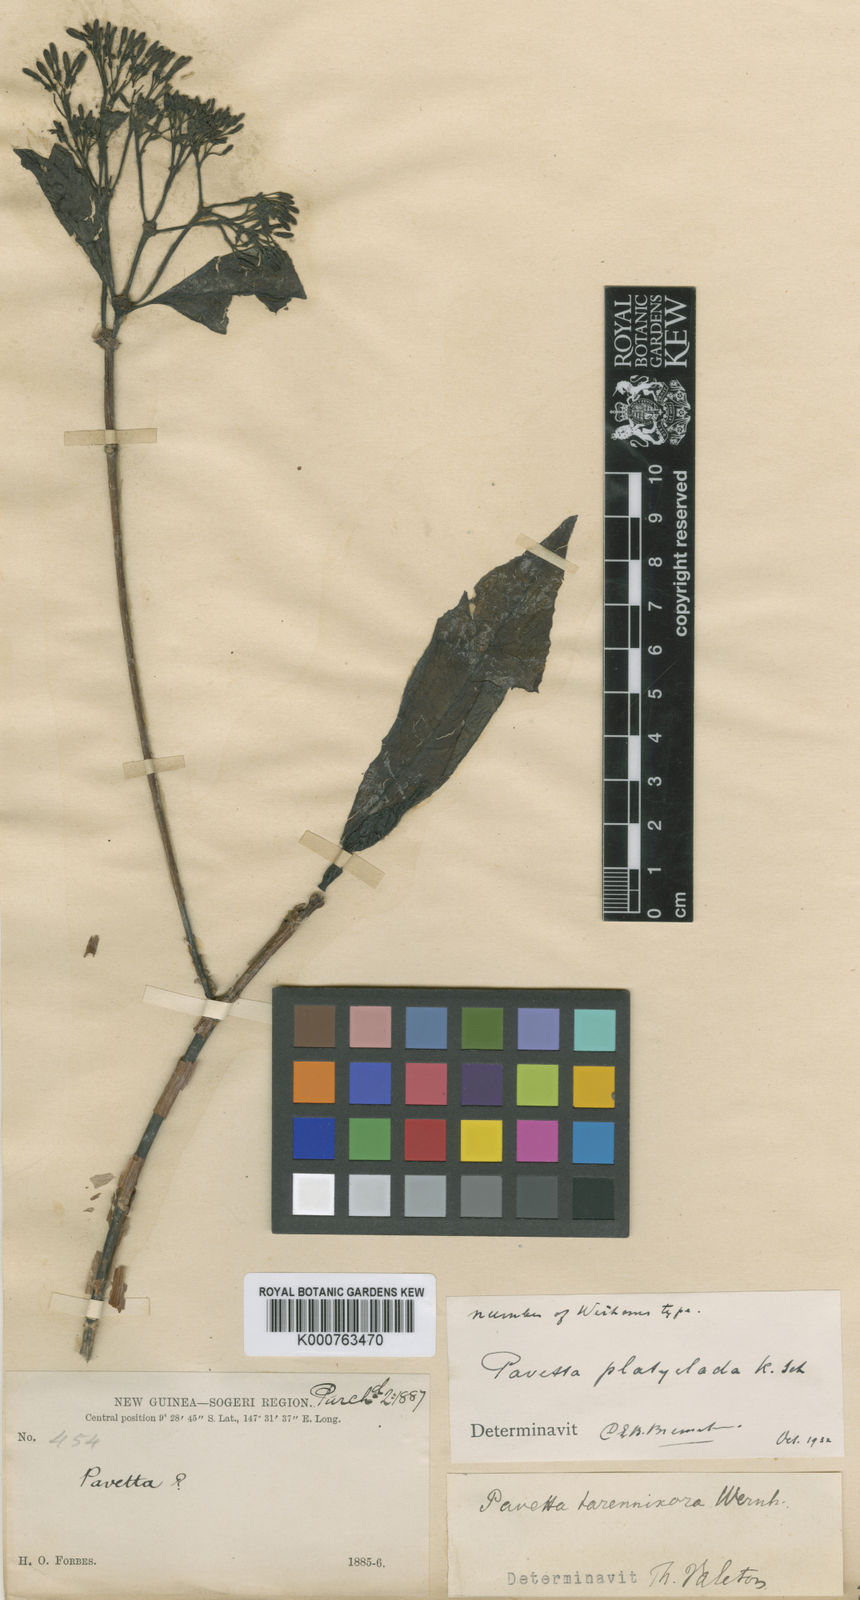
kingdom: Plantae
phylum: Tracheophyta
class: Magnoliopsida
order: Gentianales
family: Rubiaceae
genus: Pavetta
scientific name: Pavetta platyclada
